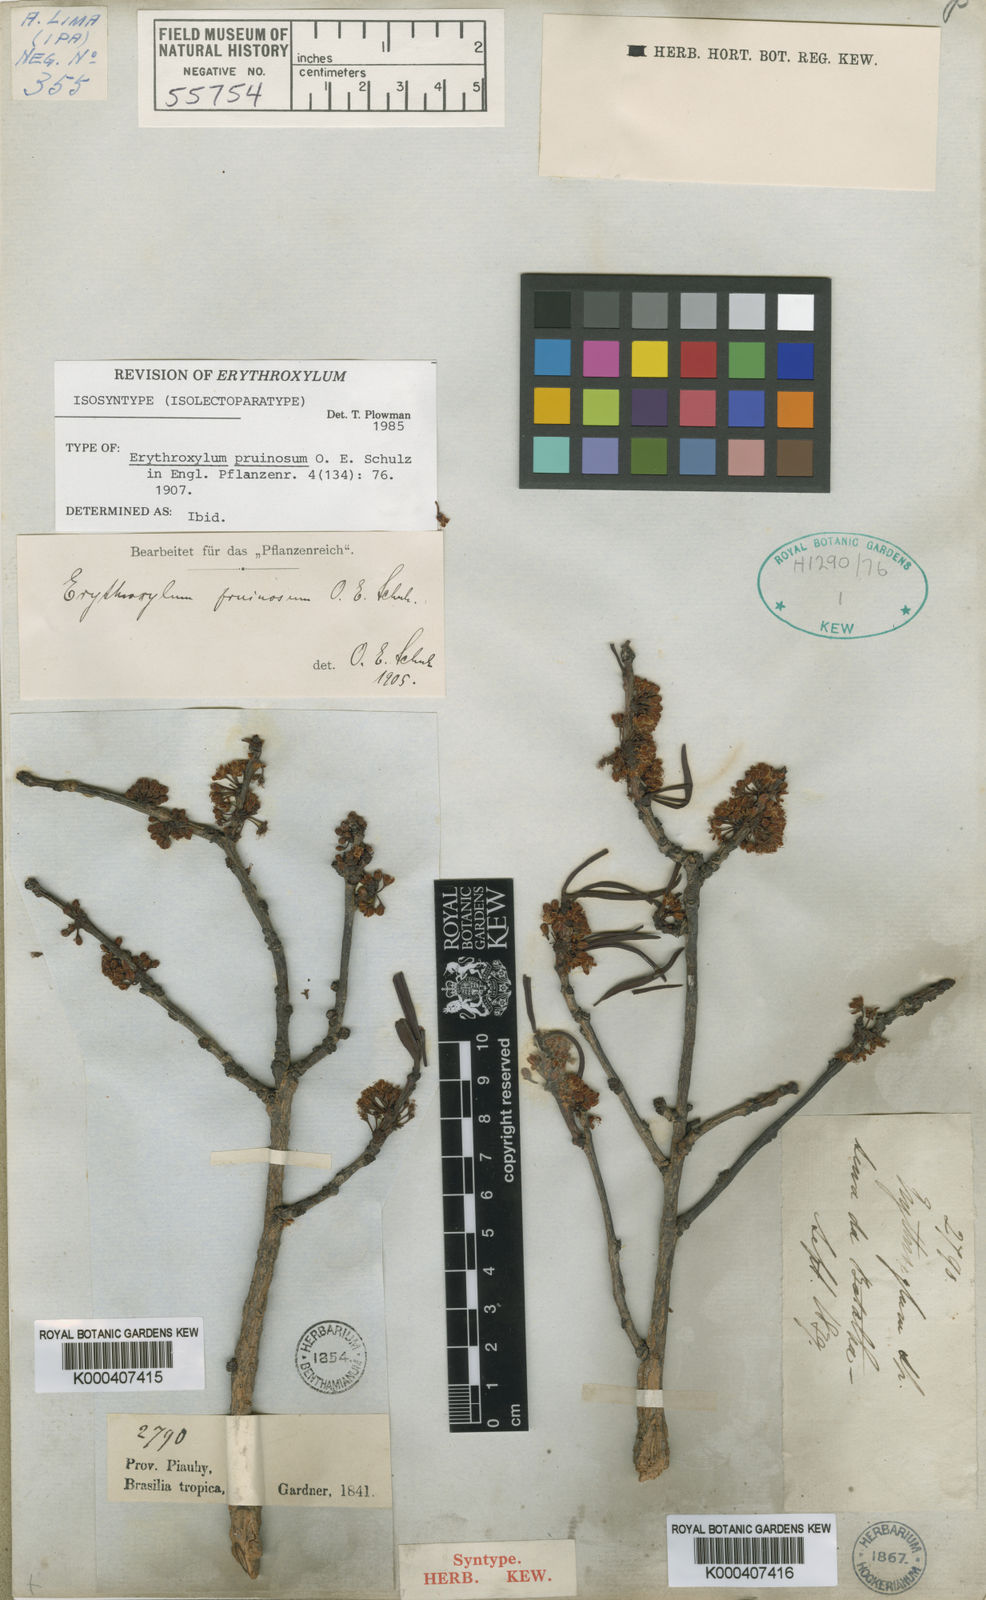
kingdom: Plantae
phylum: Tracheophyta
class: Magnoliopsida
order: Malpighiales
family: Erythroxylaceae
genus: Erythroxylum
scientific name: Erythroxylum pruinosum
